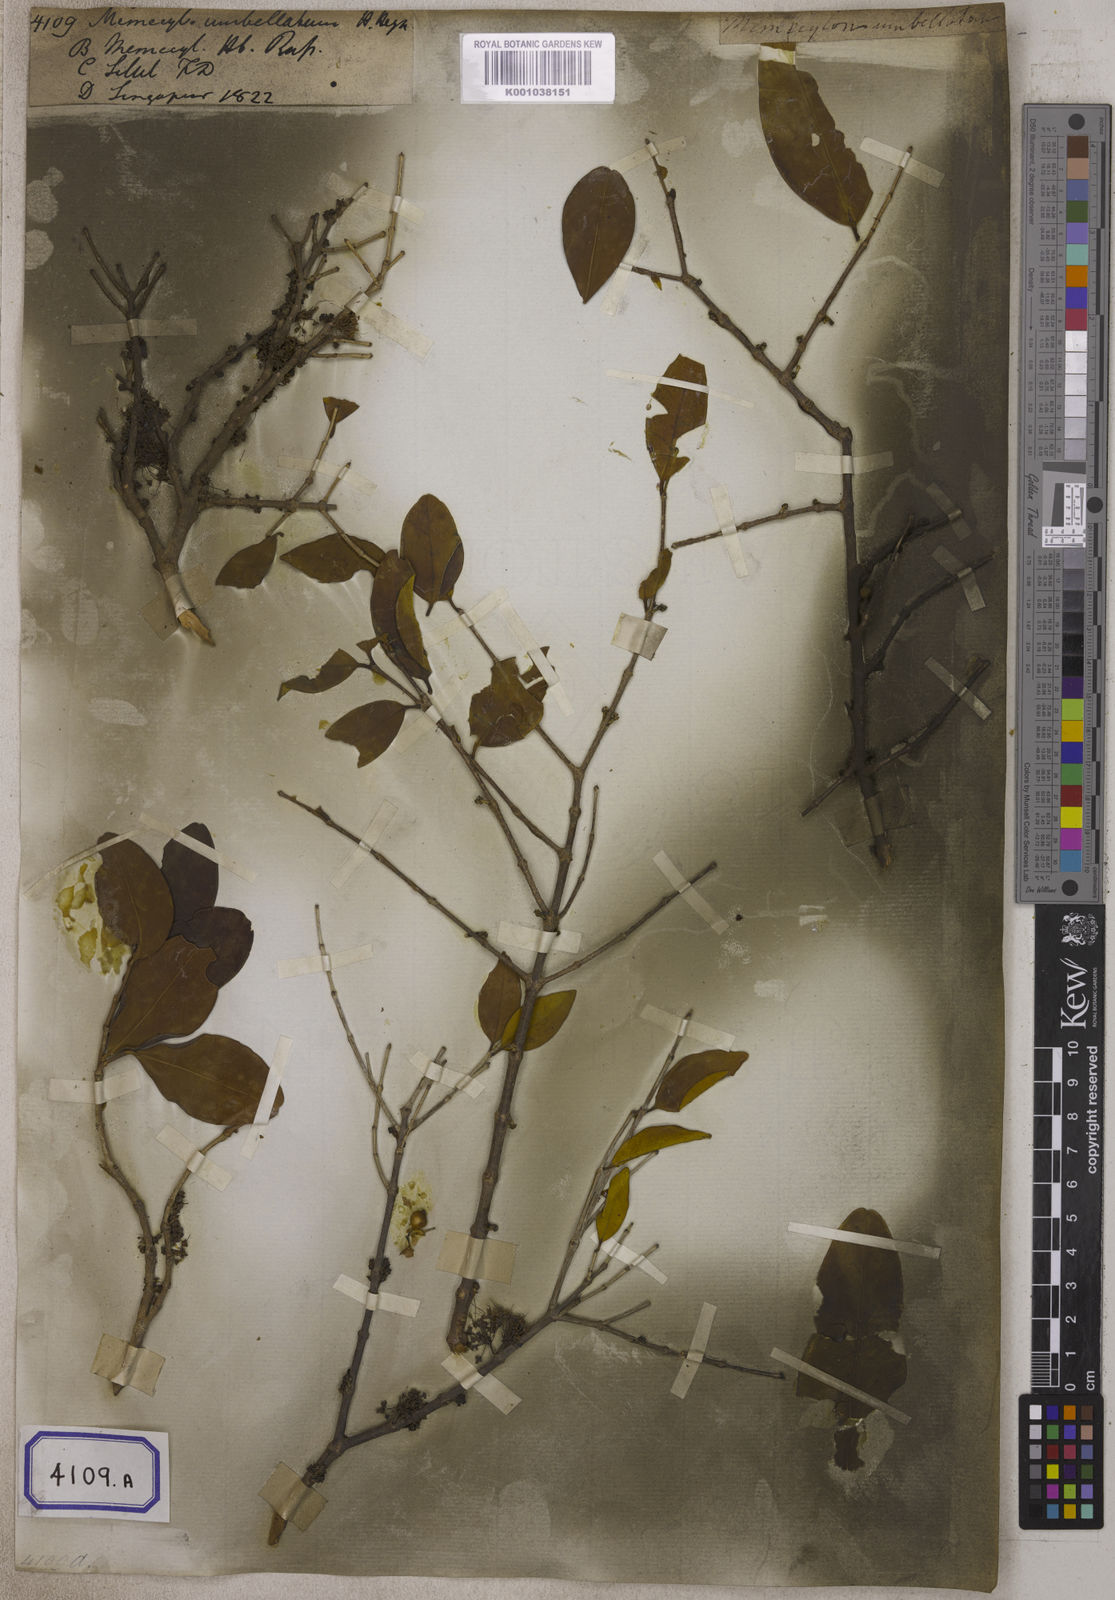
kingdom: Plantae
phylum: Tracheophyta
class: Magnoliopsida
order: Myrtales
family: Melastomataceae
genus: Memecylon
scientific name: Memecylon umbellatum
